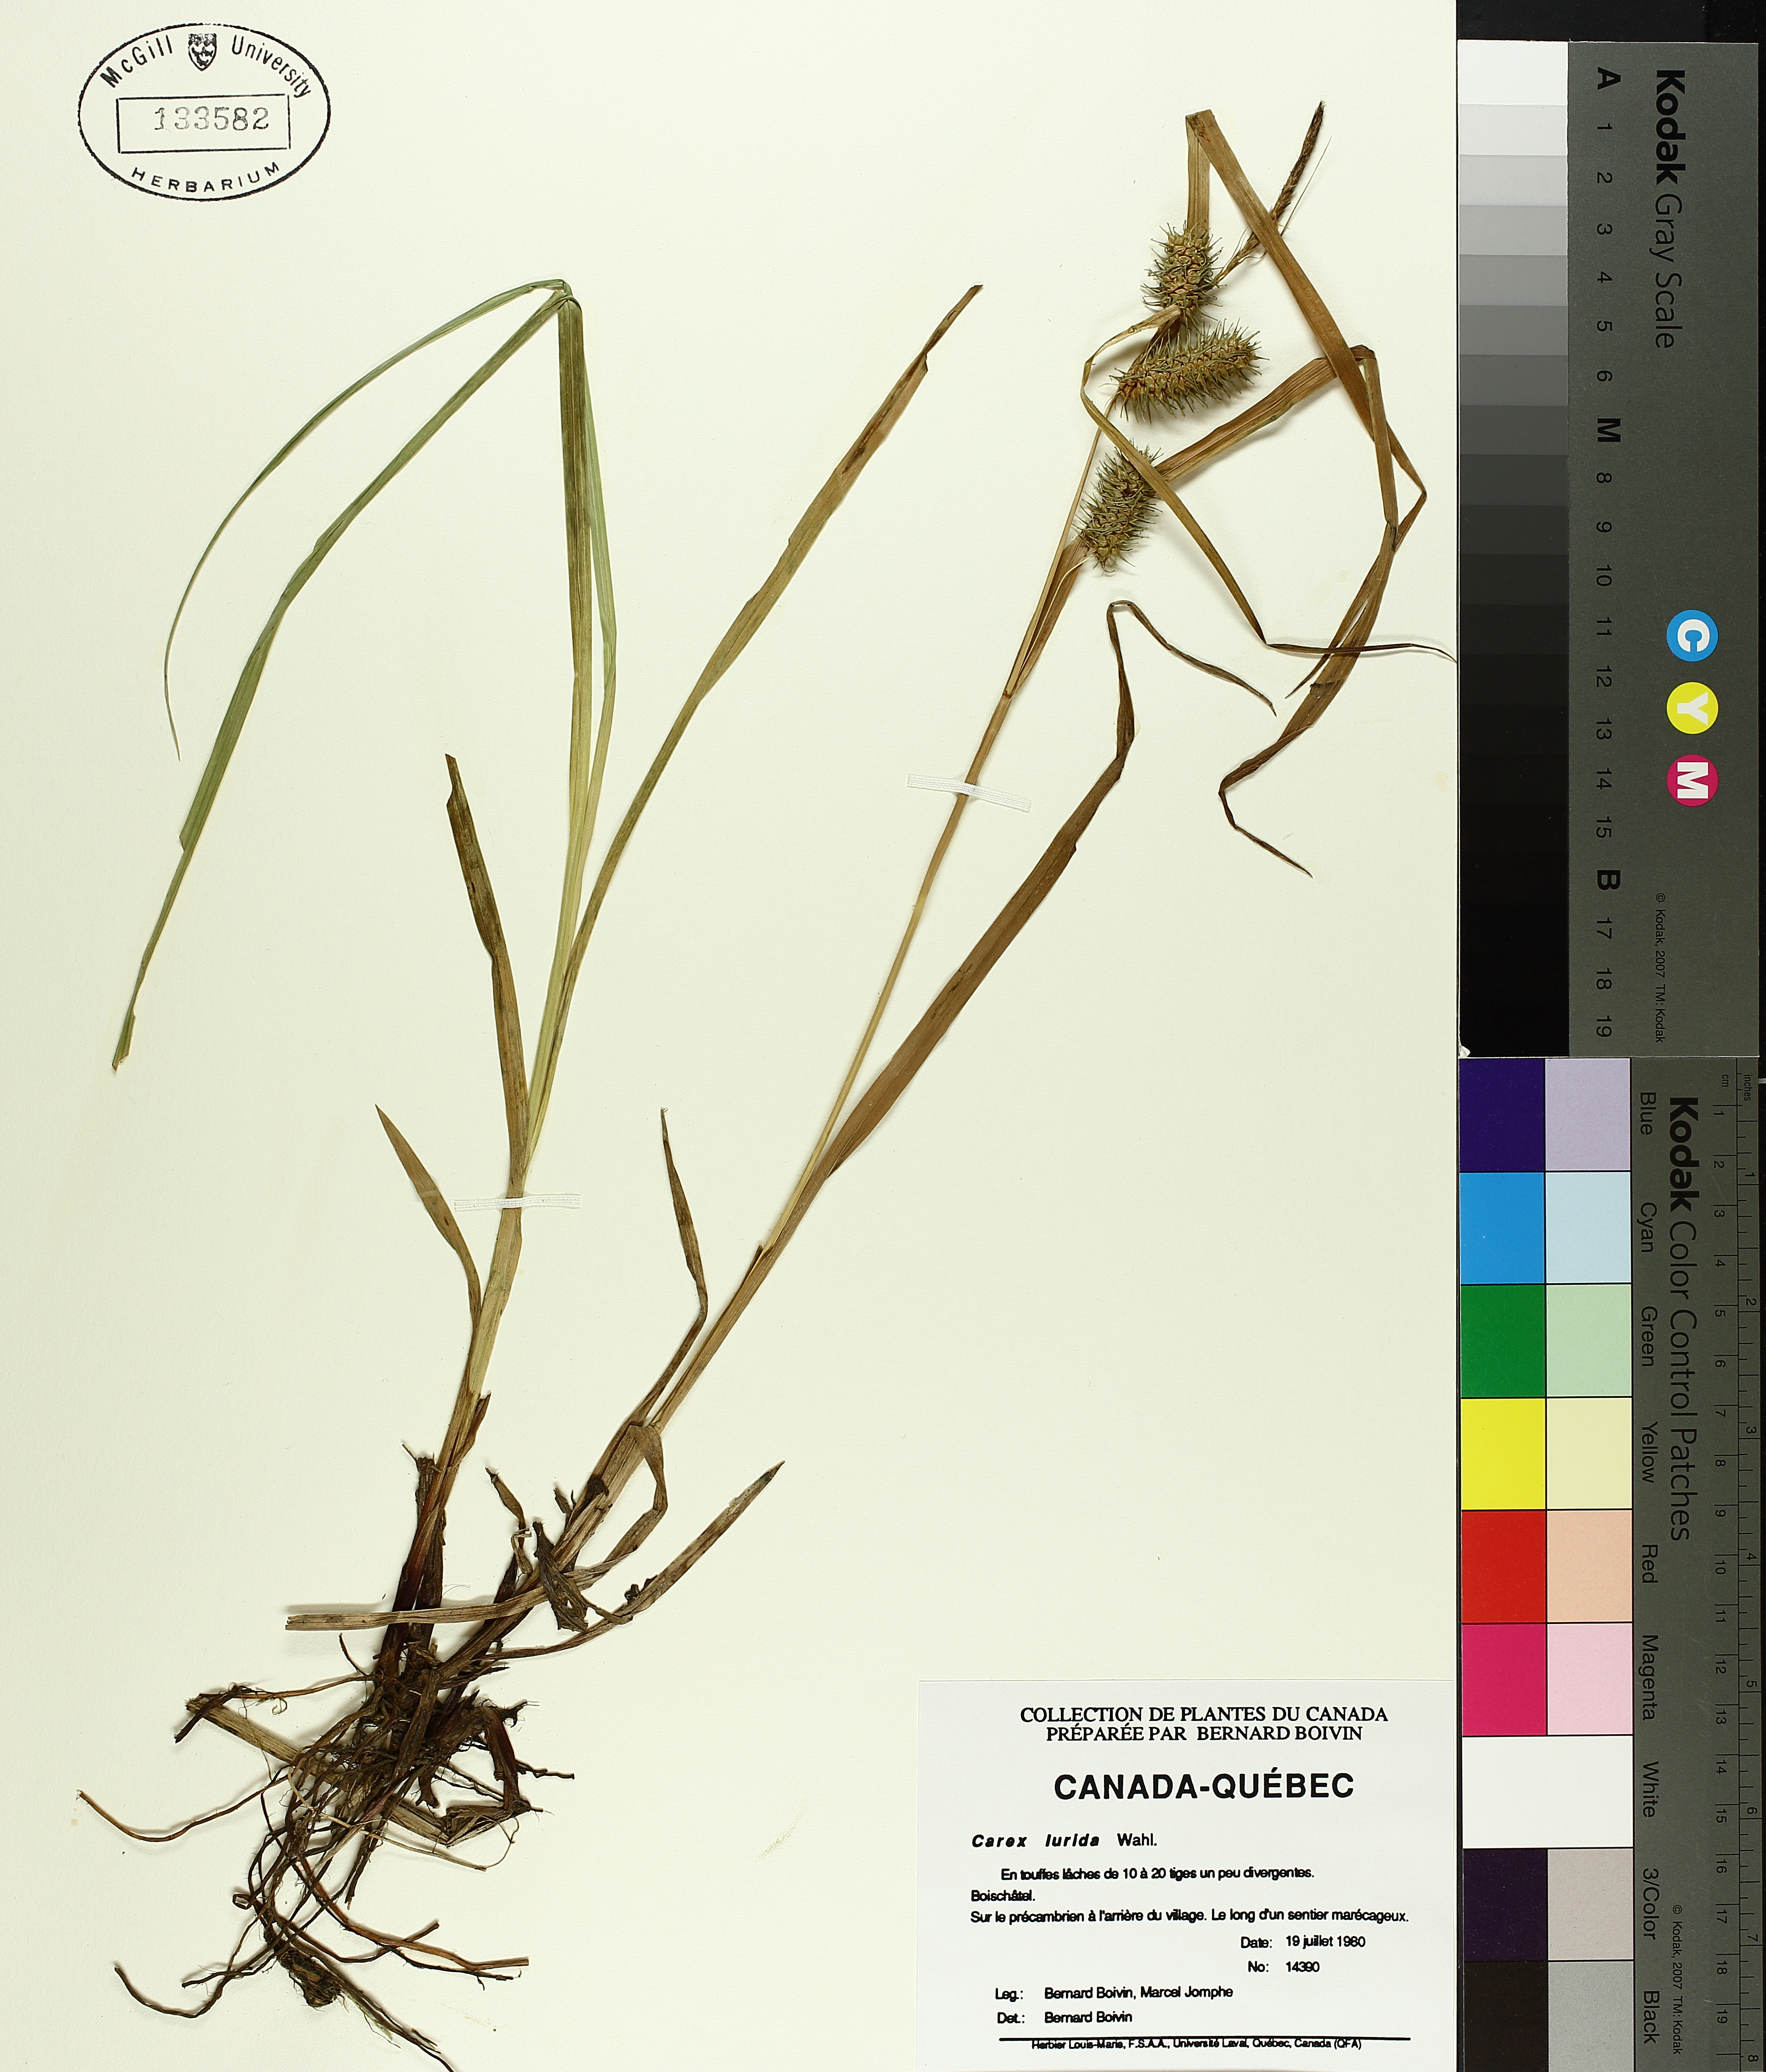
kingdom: Plantae
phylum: Tracheophyta
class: Liliopsida
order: Poales
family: Cyperaceae
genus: Carex
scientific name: Carex lurida
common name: Sallow sedge
